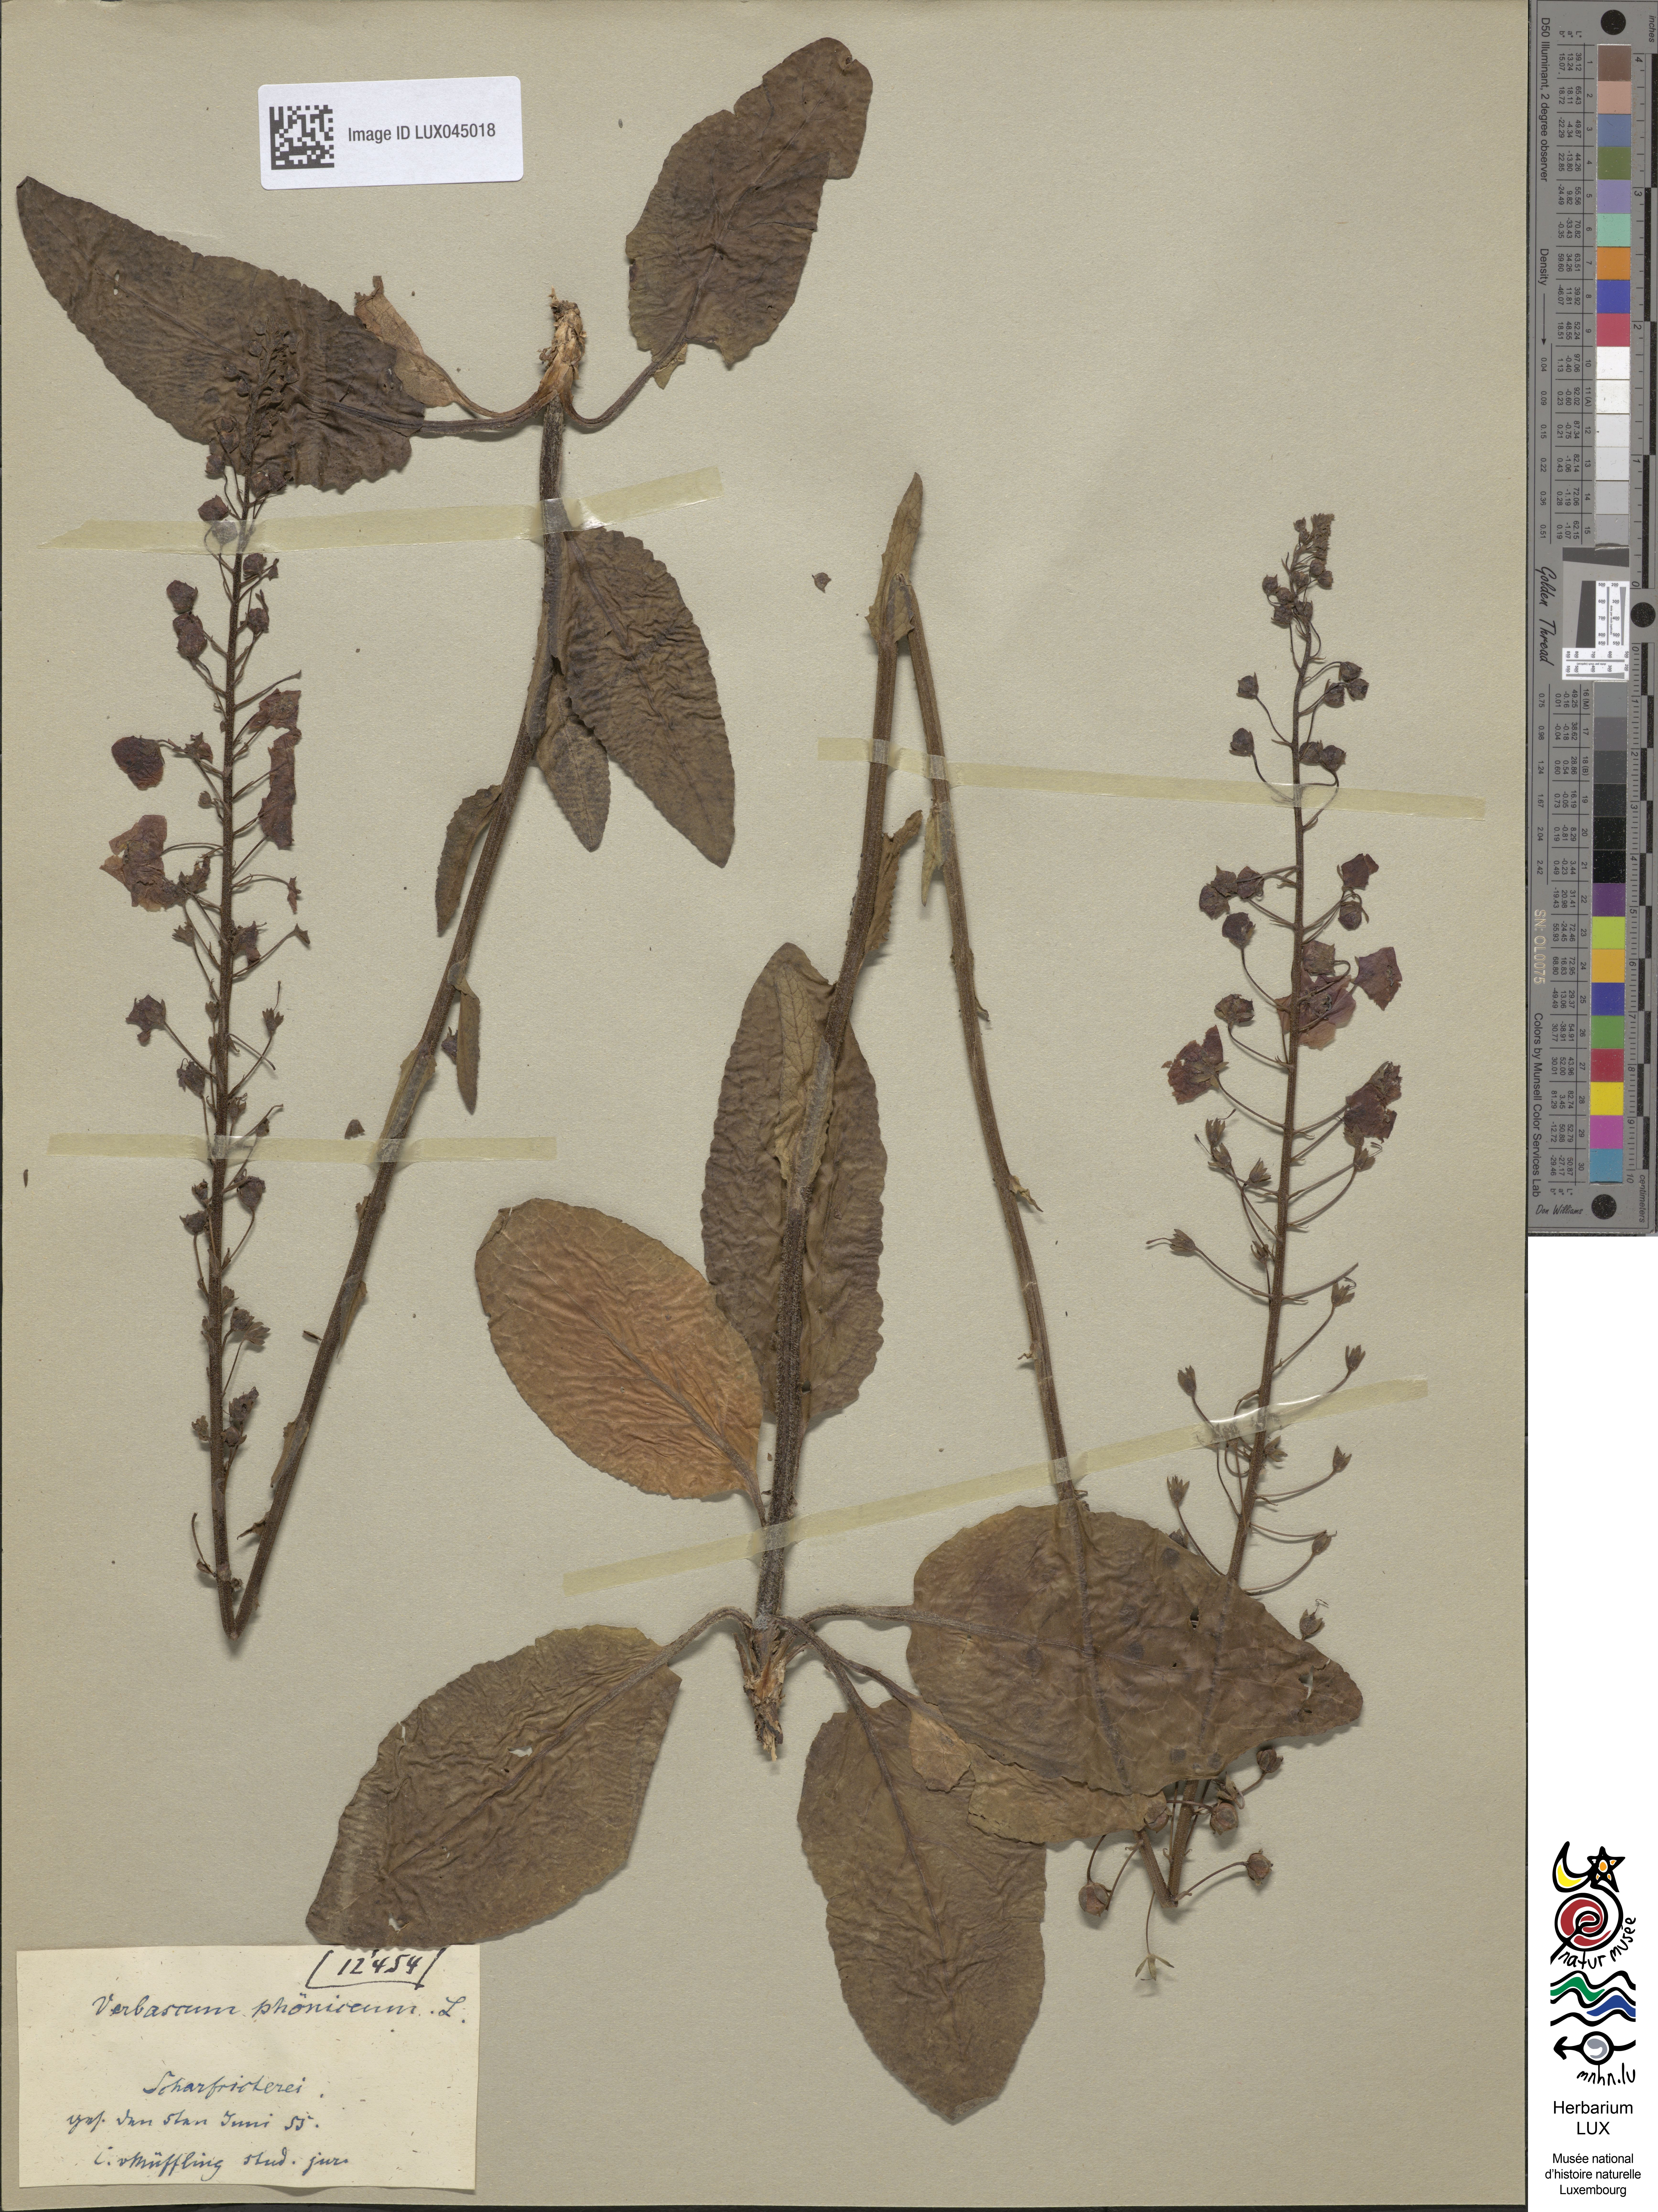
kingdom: Plantae
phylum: Tracheophyta
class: Magnoliopsida
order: Lamiales
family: Scrophulariaceae
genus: Verbascum
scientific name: Verbascum phoeniceum
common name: Purple mullein
